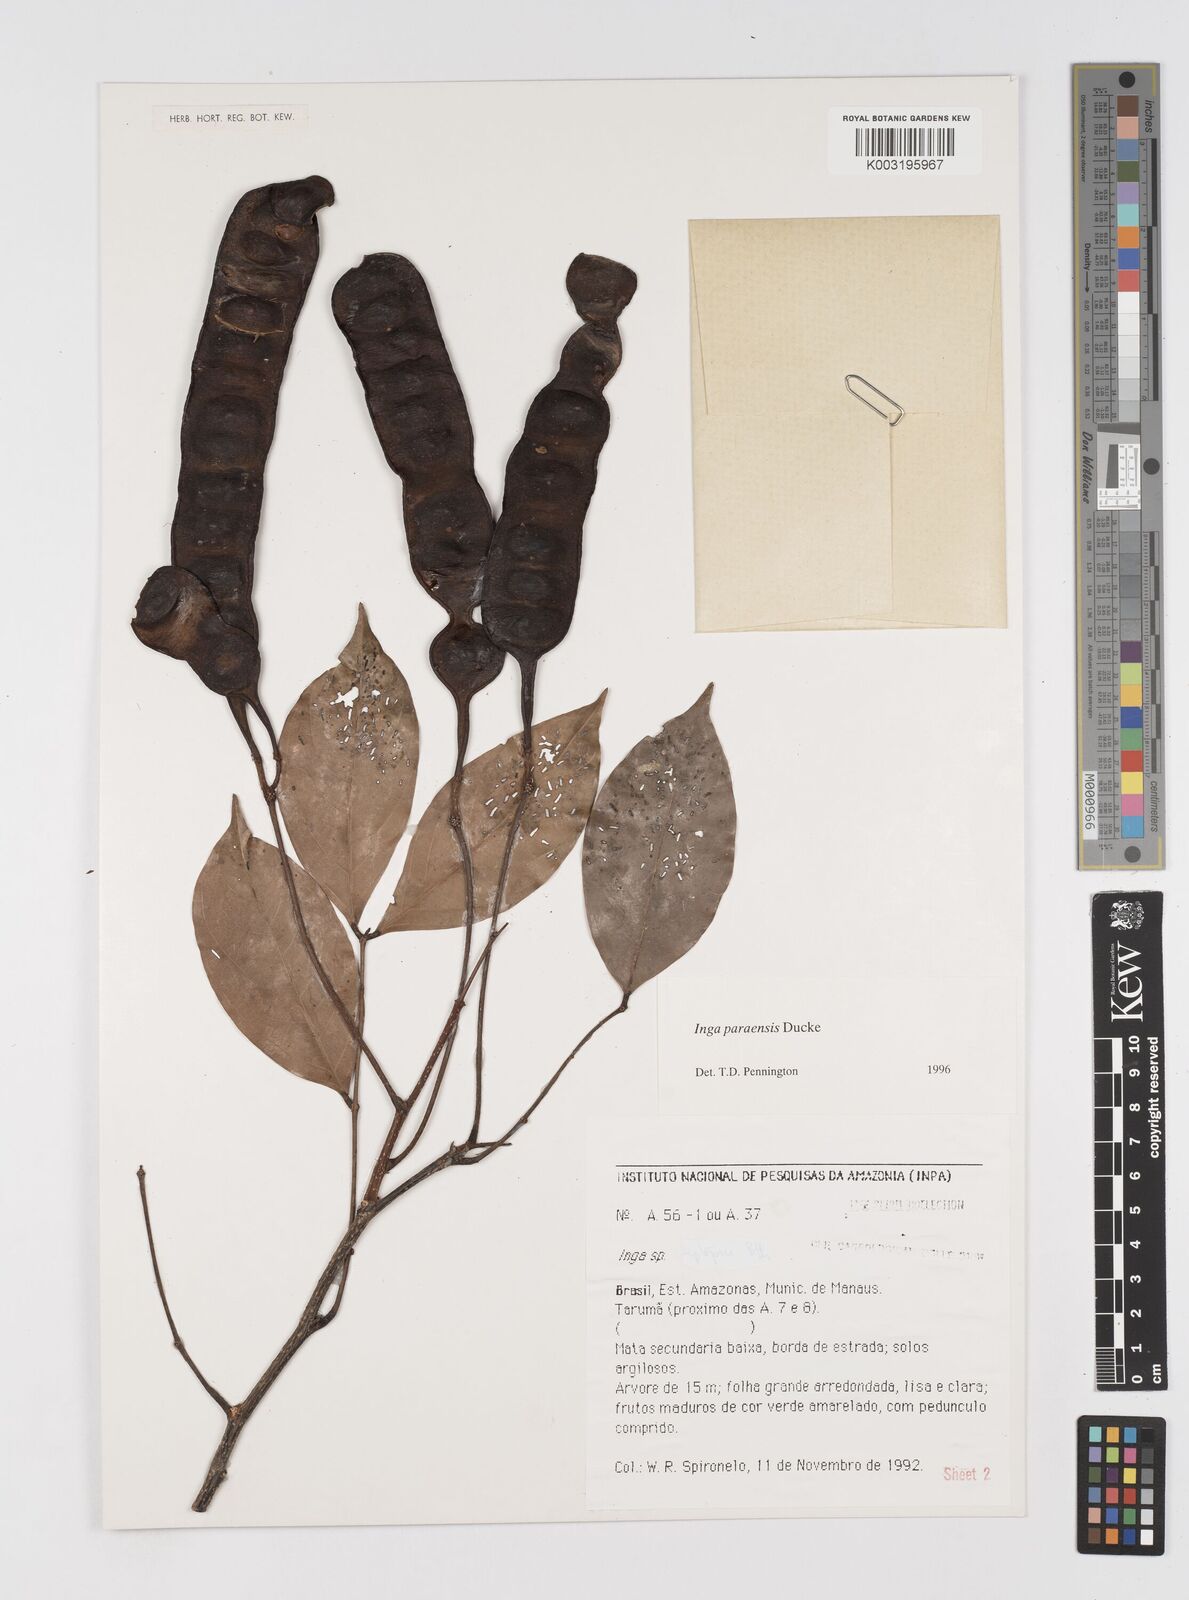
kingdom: Plantae
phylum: Tracheophyta
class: Magnoliopsida
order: Fabales
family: Fabaceae
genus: Inga
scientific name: Inga paraensis
